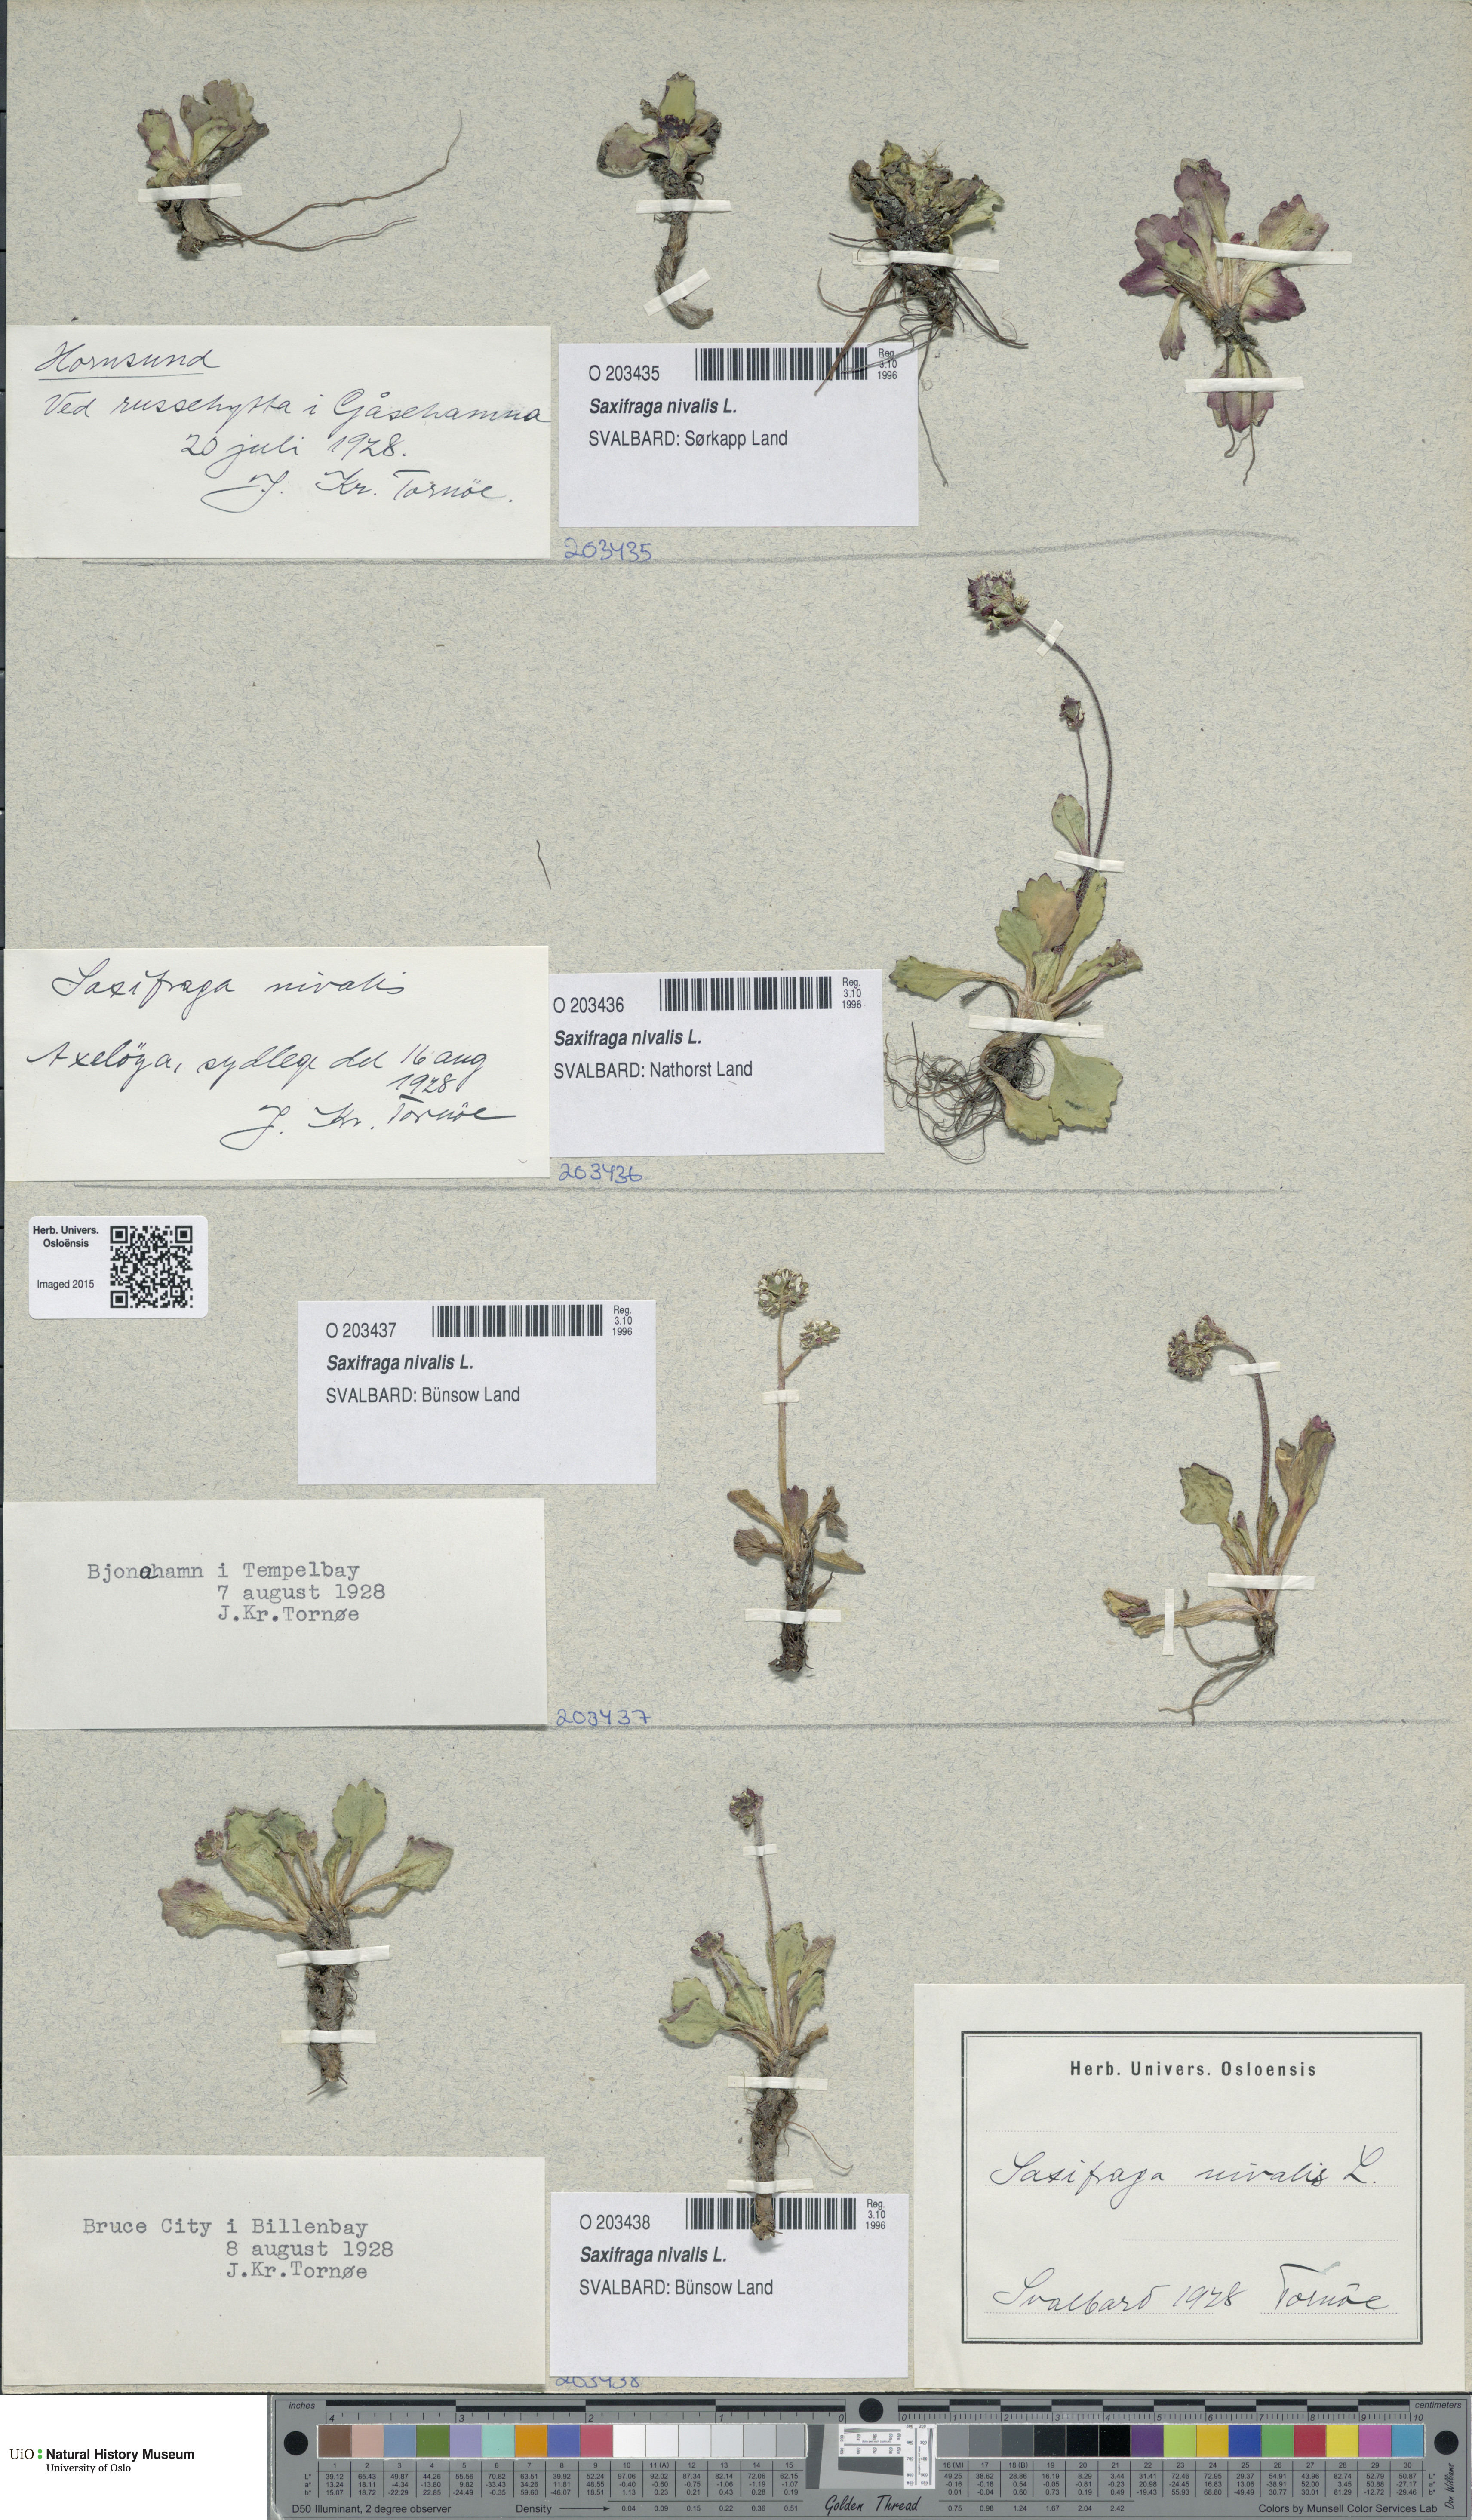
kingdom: Plantae
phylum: Tracheophyta
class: Magnoliopsida
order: Saxifragales
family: Saxifragaceae
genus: Micranthes
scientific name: Micranthes nivalis
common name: Alpine saxifrage
